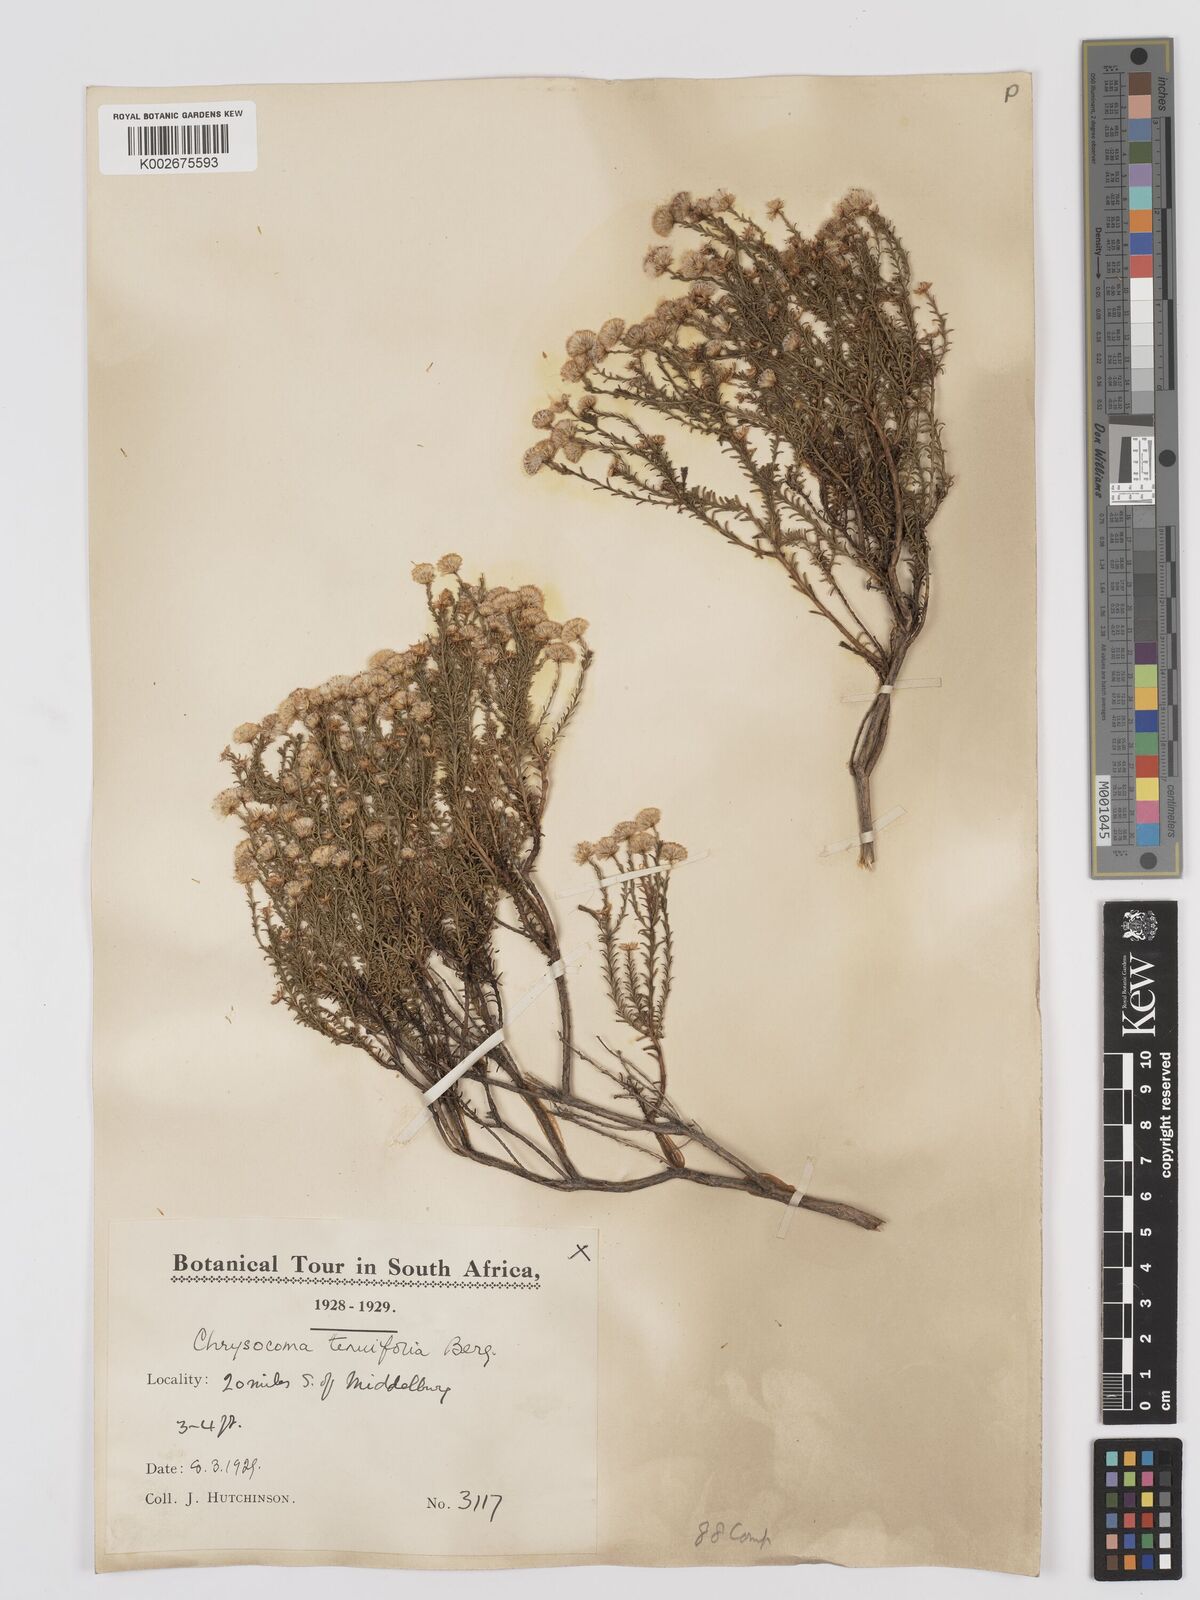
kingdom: Plantae
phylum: Tracheophyta
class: Magnoliopsida
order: Asterales
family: Asteraceae
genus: Chrysocoma
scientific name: Chrysocoma ciliata
